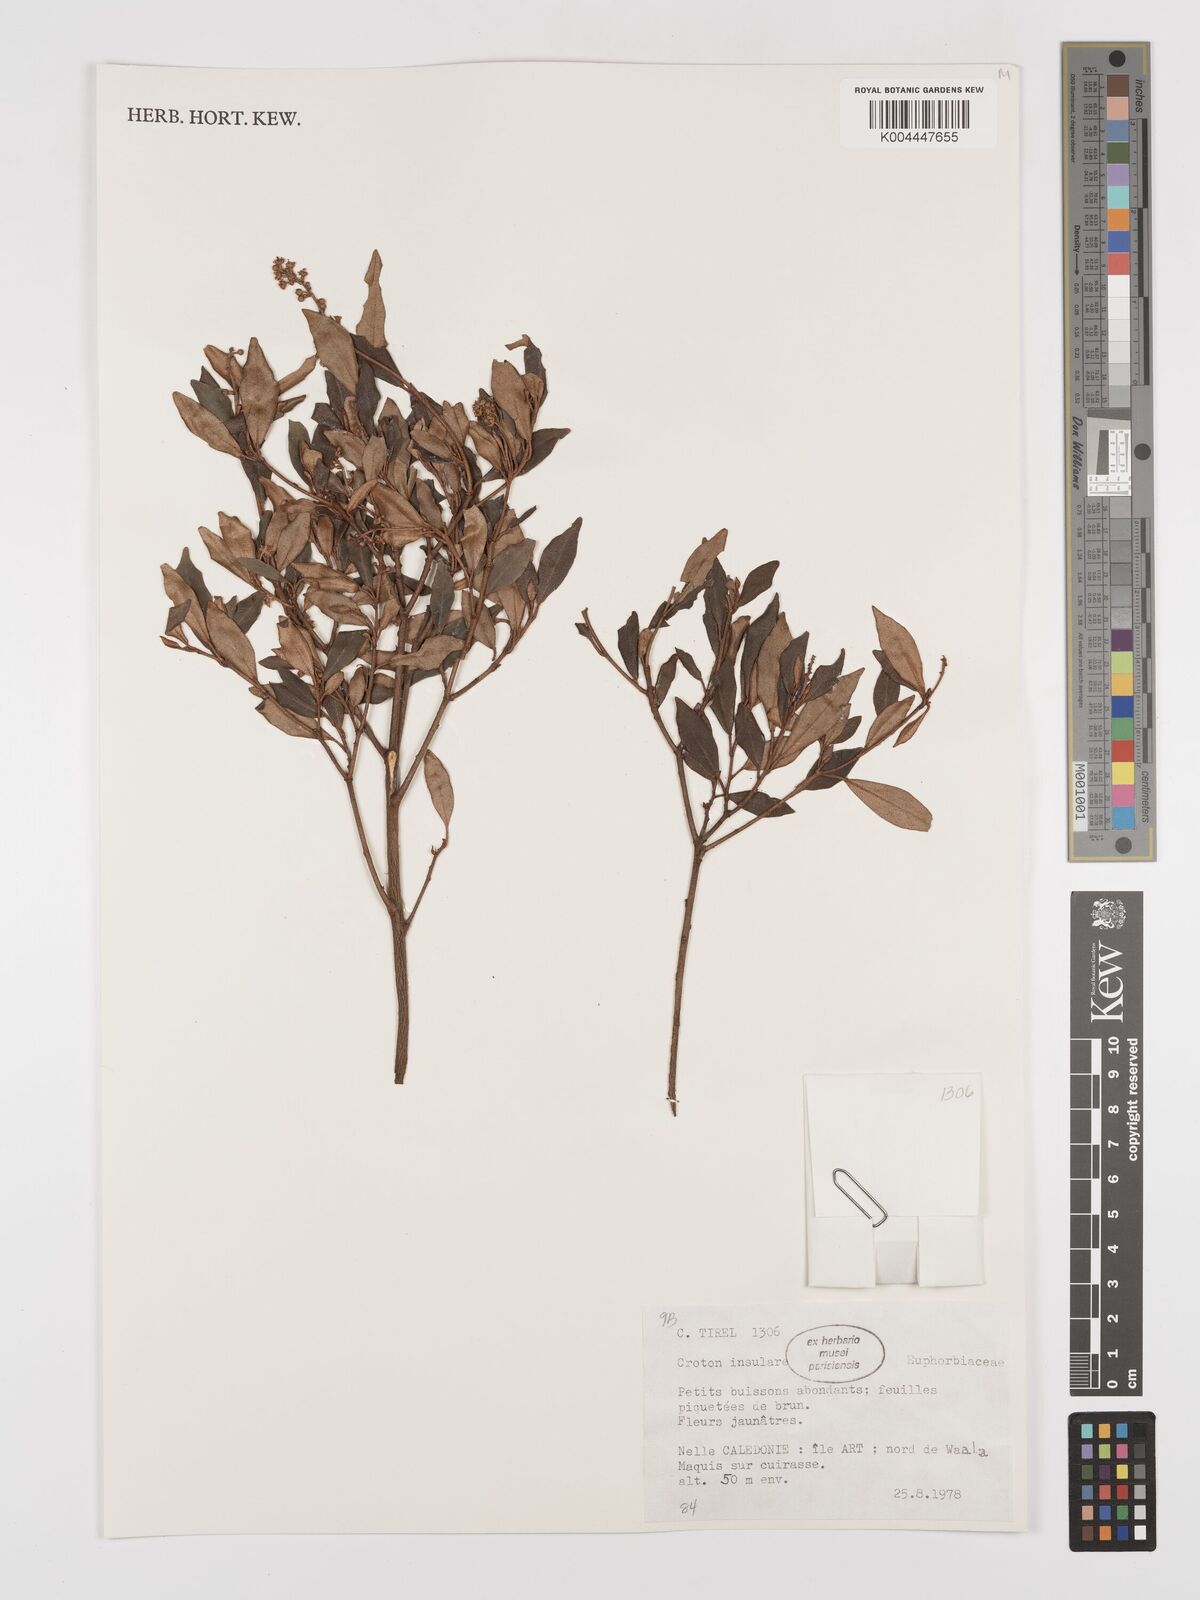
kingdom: Plantae
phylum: Tracheophyta
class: Magnoliopsida
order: Malpighiales
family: Euphorbiaceae
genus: Croton
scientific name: Croton insularis
